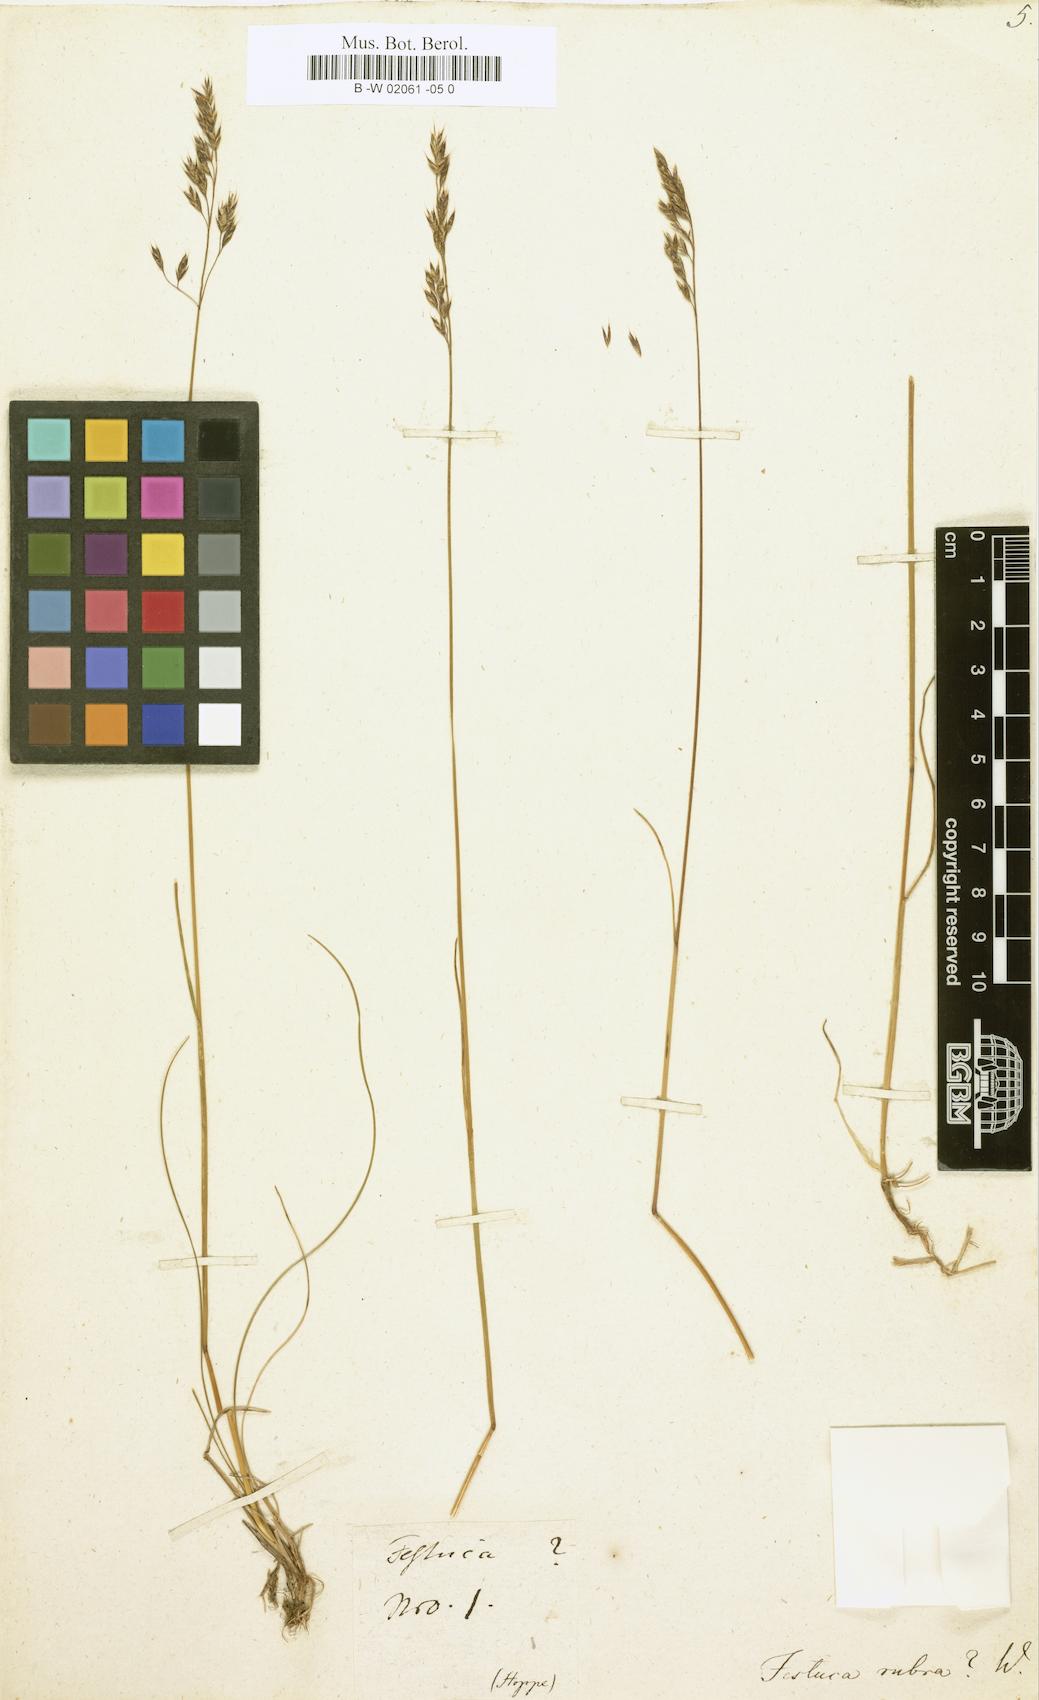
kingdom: Plantae
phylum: Tracheophyta
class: Liliopsida
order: Poales
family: Poaceae
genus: Festuca
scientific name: Festuca rubra
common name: Red fescue
